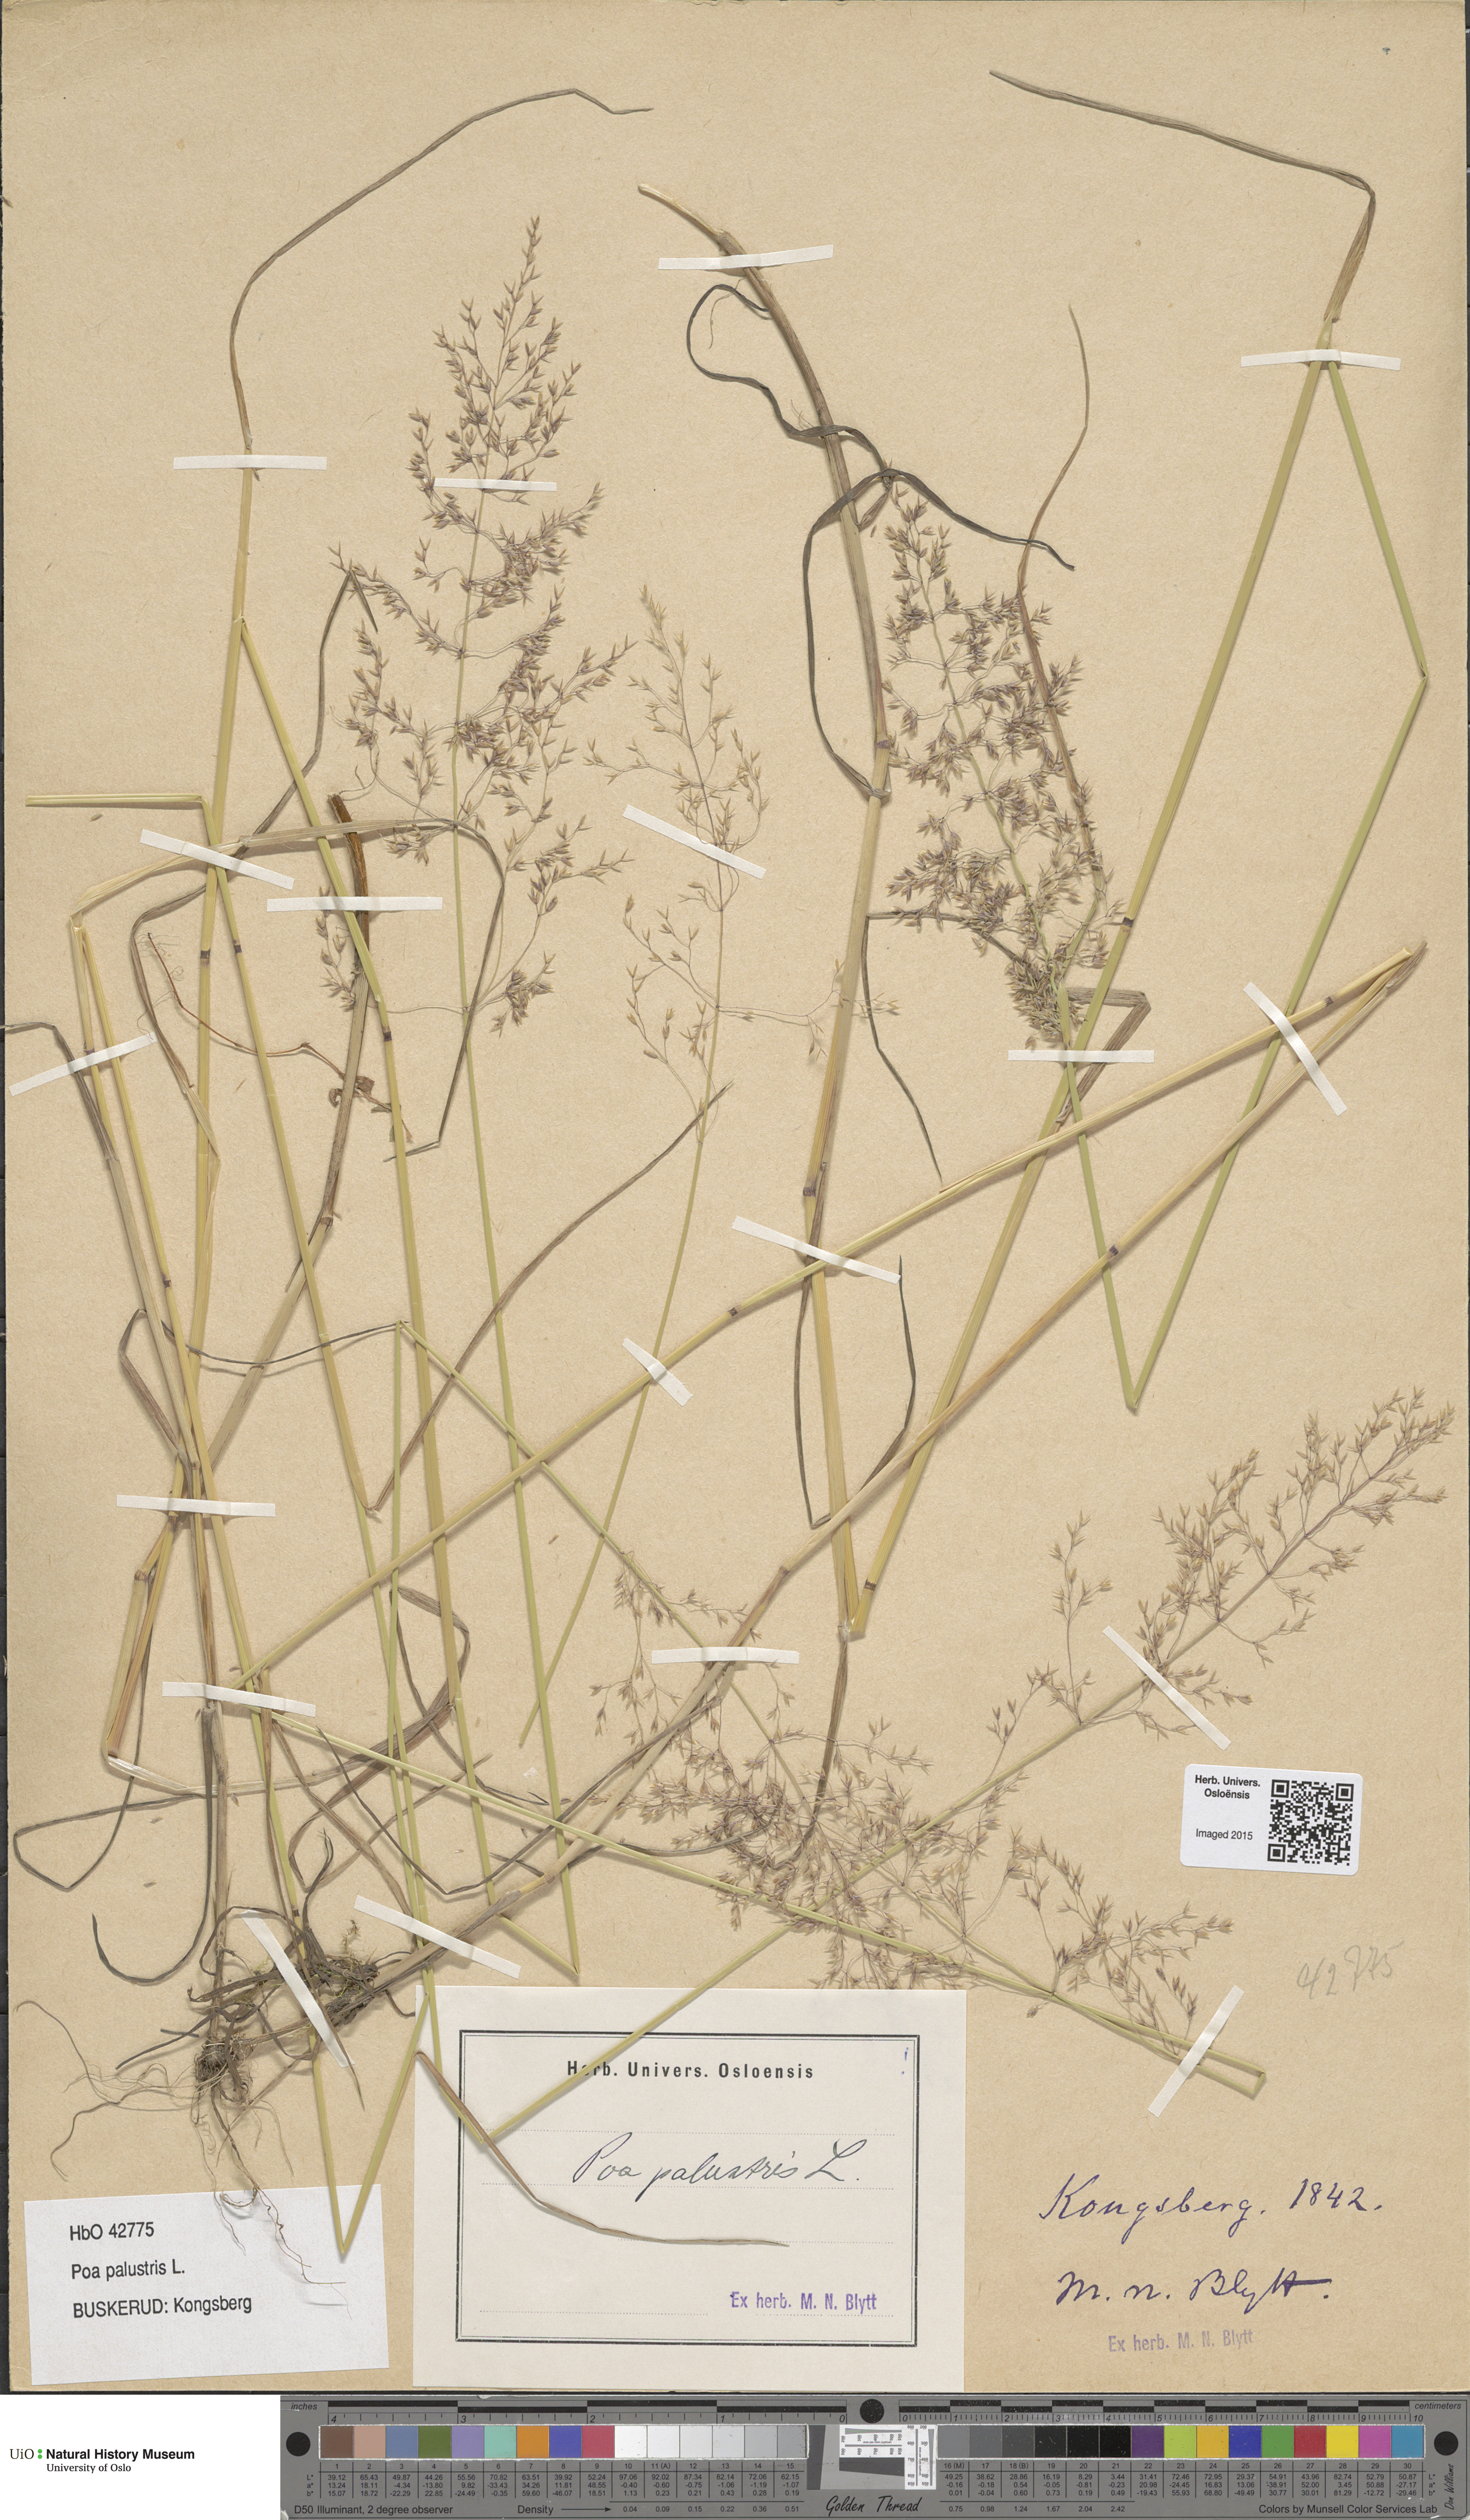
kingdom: Plantae
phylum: Tracheophyta
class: Liliopsida
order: Poales
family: Poaceae
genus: Poa
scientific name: Poa palustris
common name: Swamp meadow-grass
